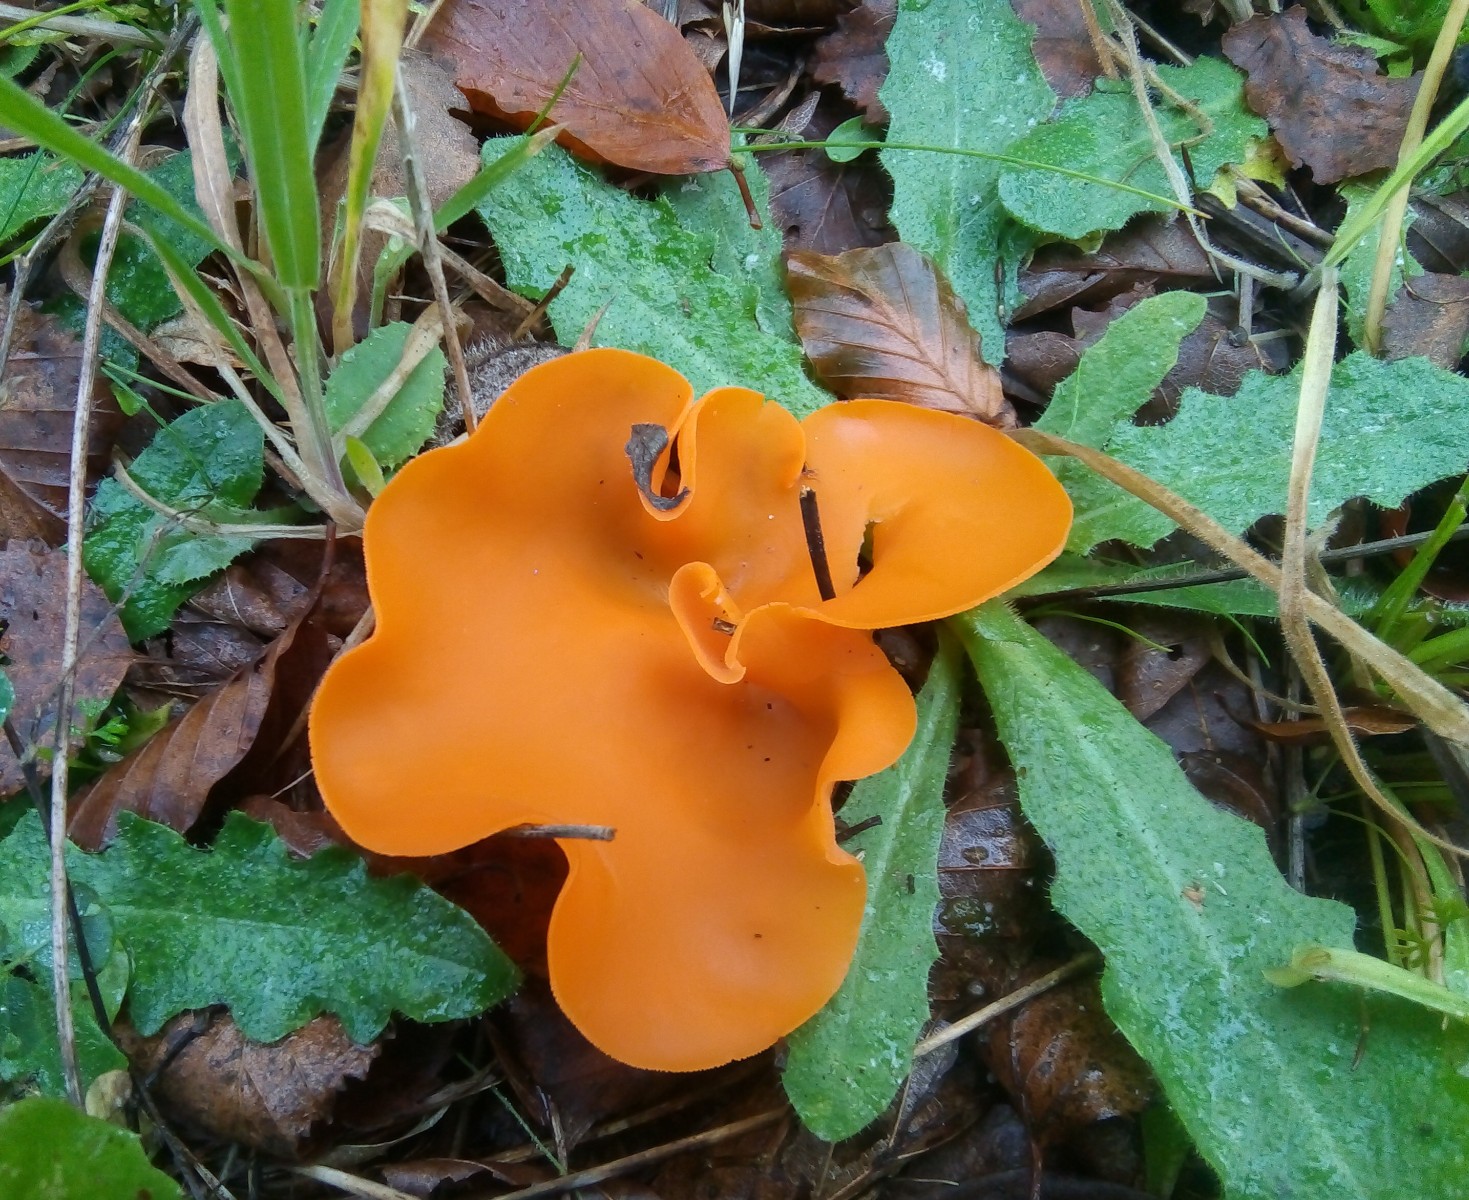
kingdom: Fungi
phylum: Ascomycota
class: Pezizomycetes
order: Pezizales
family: Pyronemataceae
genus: Aleuria
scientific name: Aleuria aurantia
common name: almindelig orangebæger
